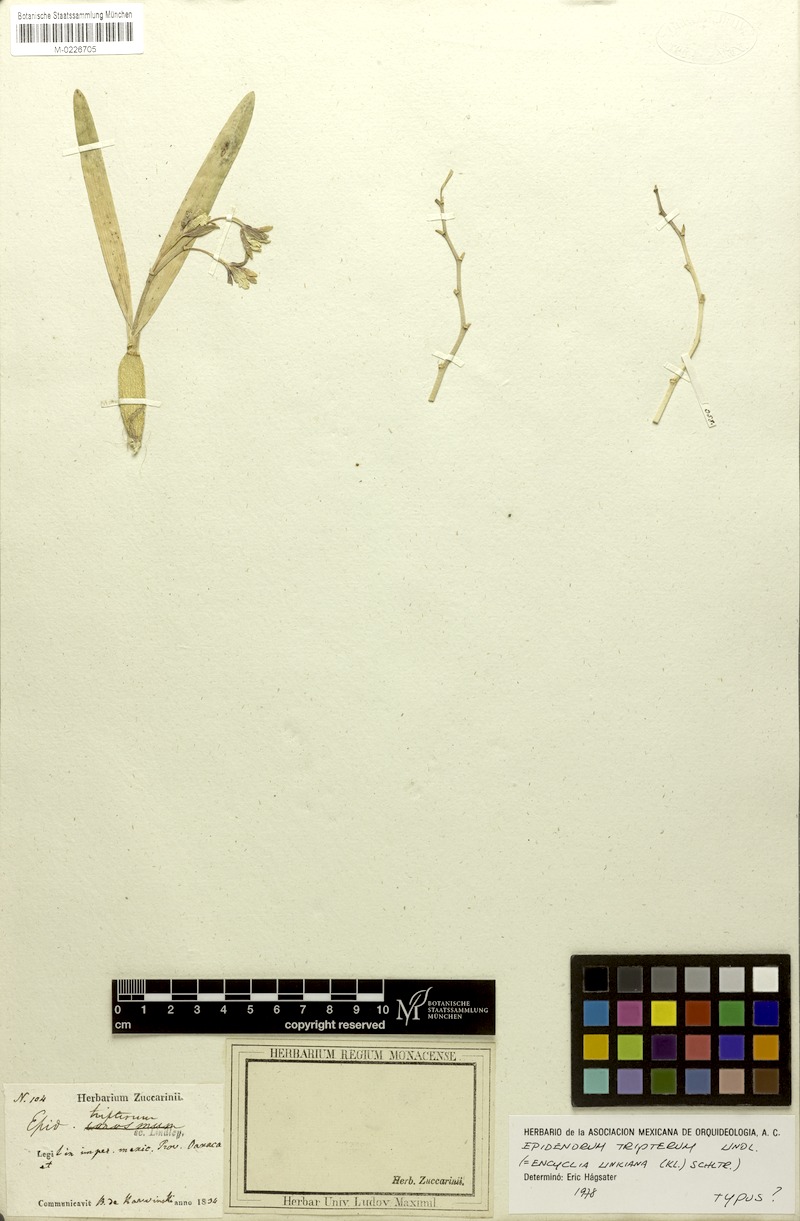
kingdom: Plantae
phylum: Tracheophyta
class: Liliopsida
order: Asparagales
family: Orchidaceae
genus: Prosthechea
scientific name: Prosthechea semiaperta
